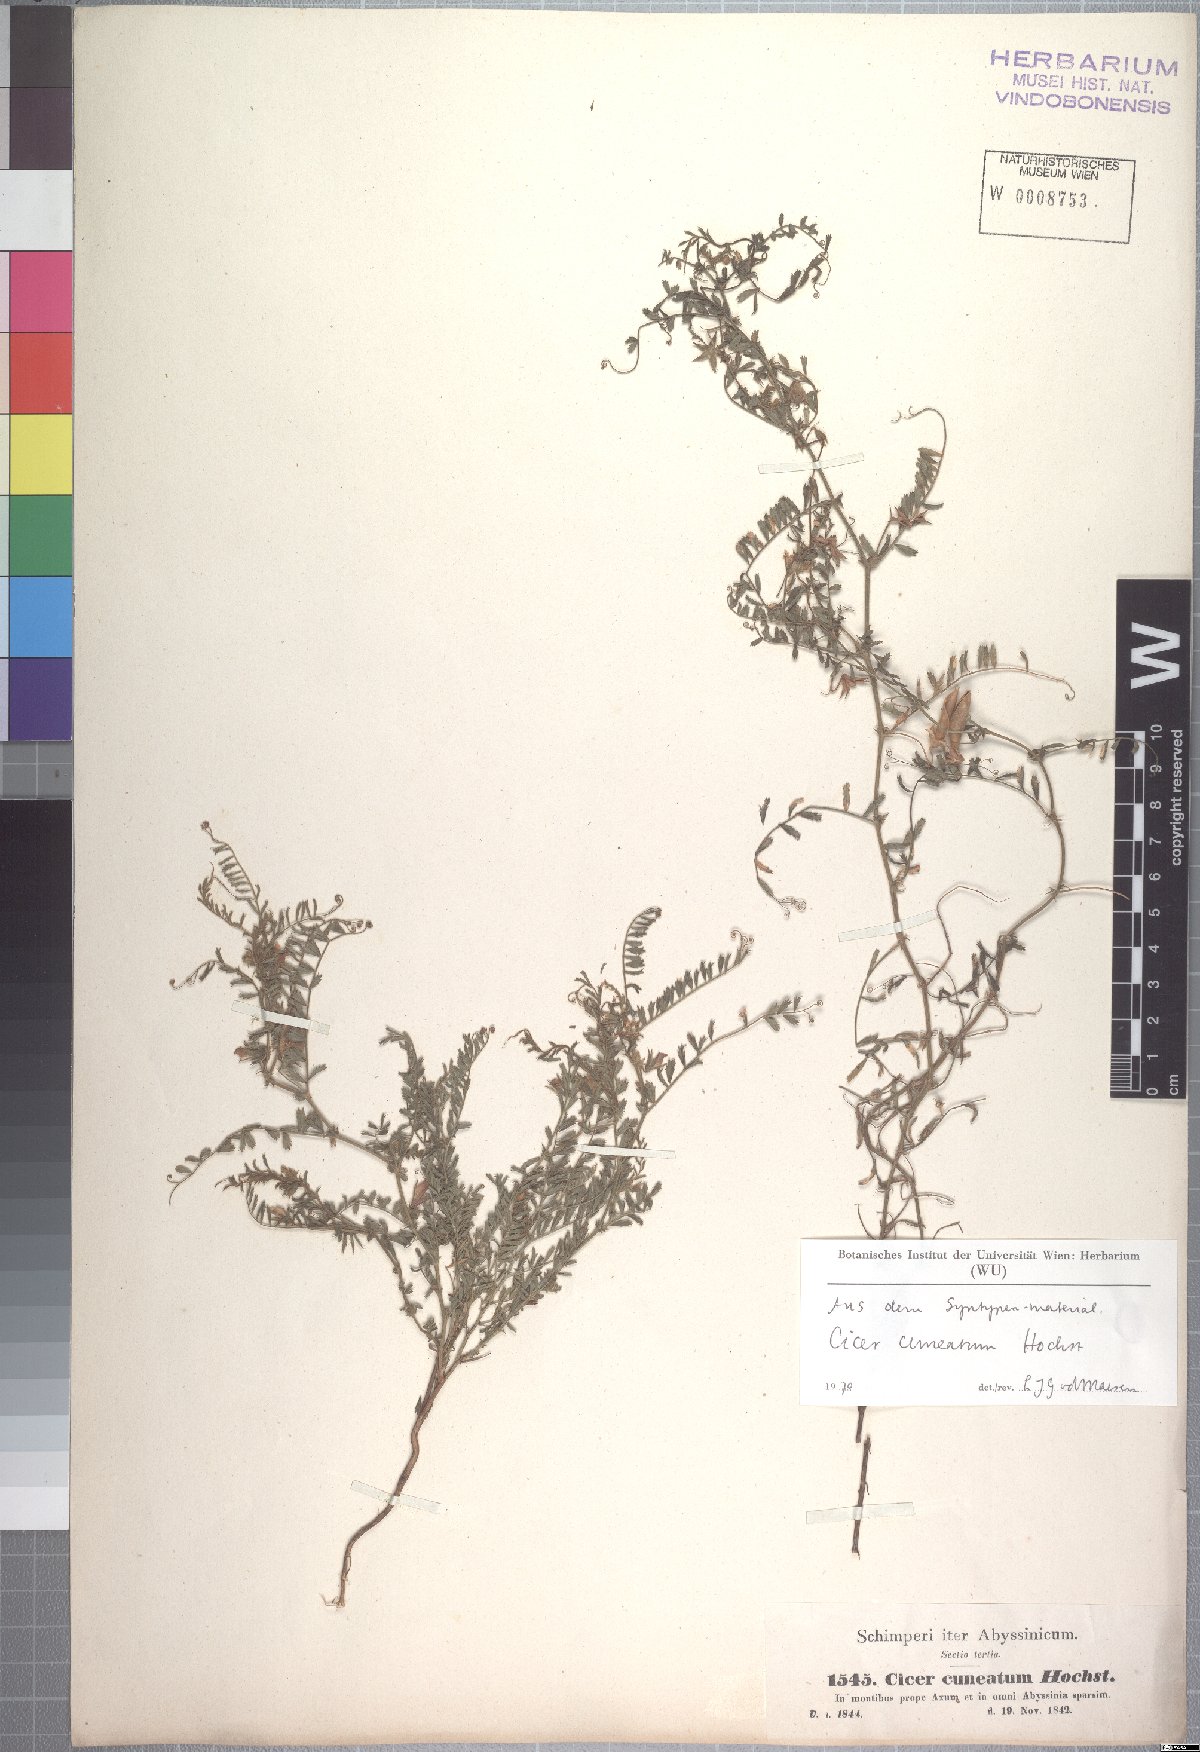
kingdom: Plantae
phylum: Tracheophyta
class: Magnoliopsida
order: Fabales
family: Fabaceae
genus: Cicer
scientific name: Cicer cuneatum
